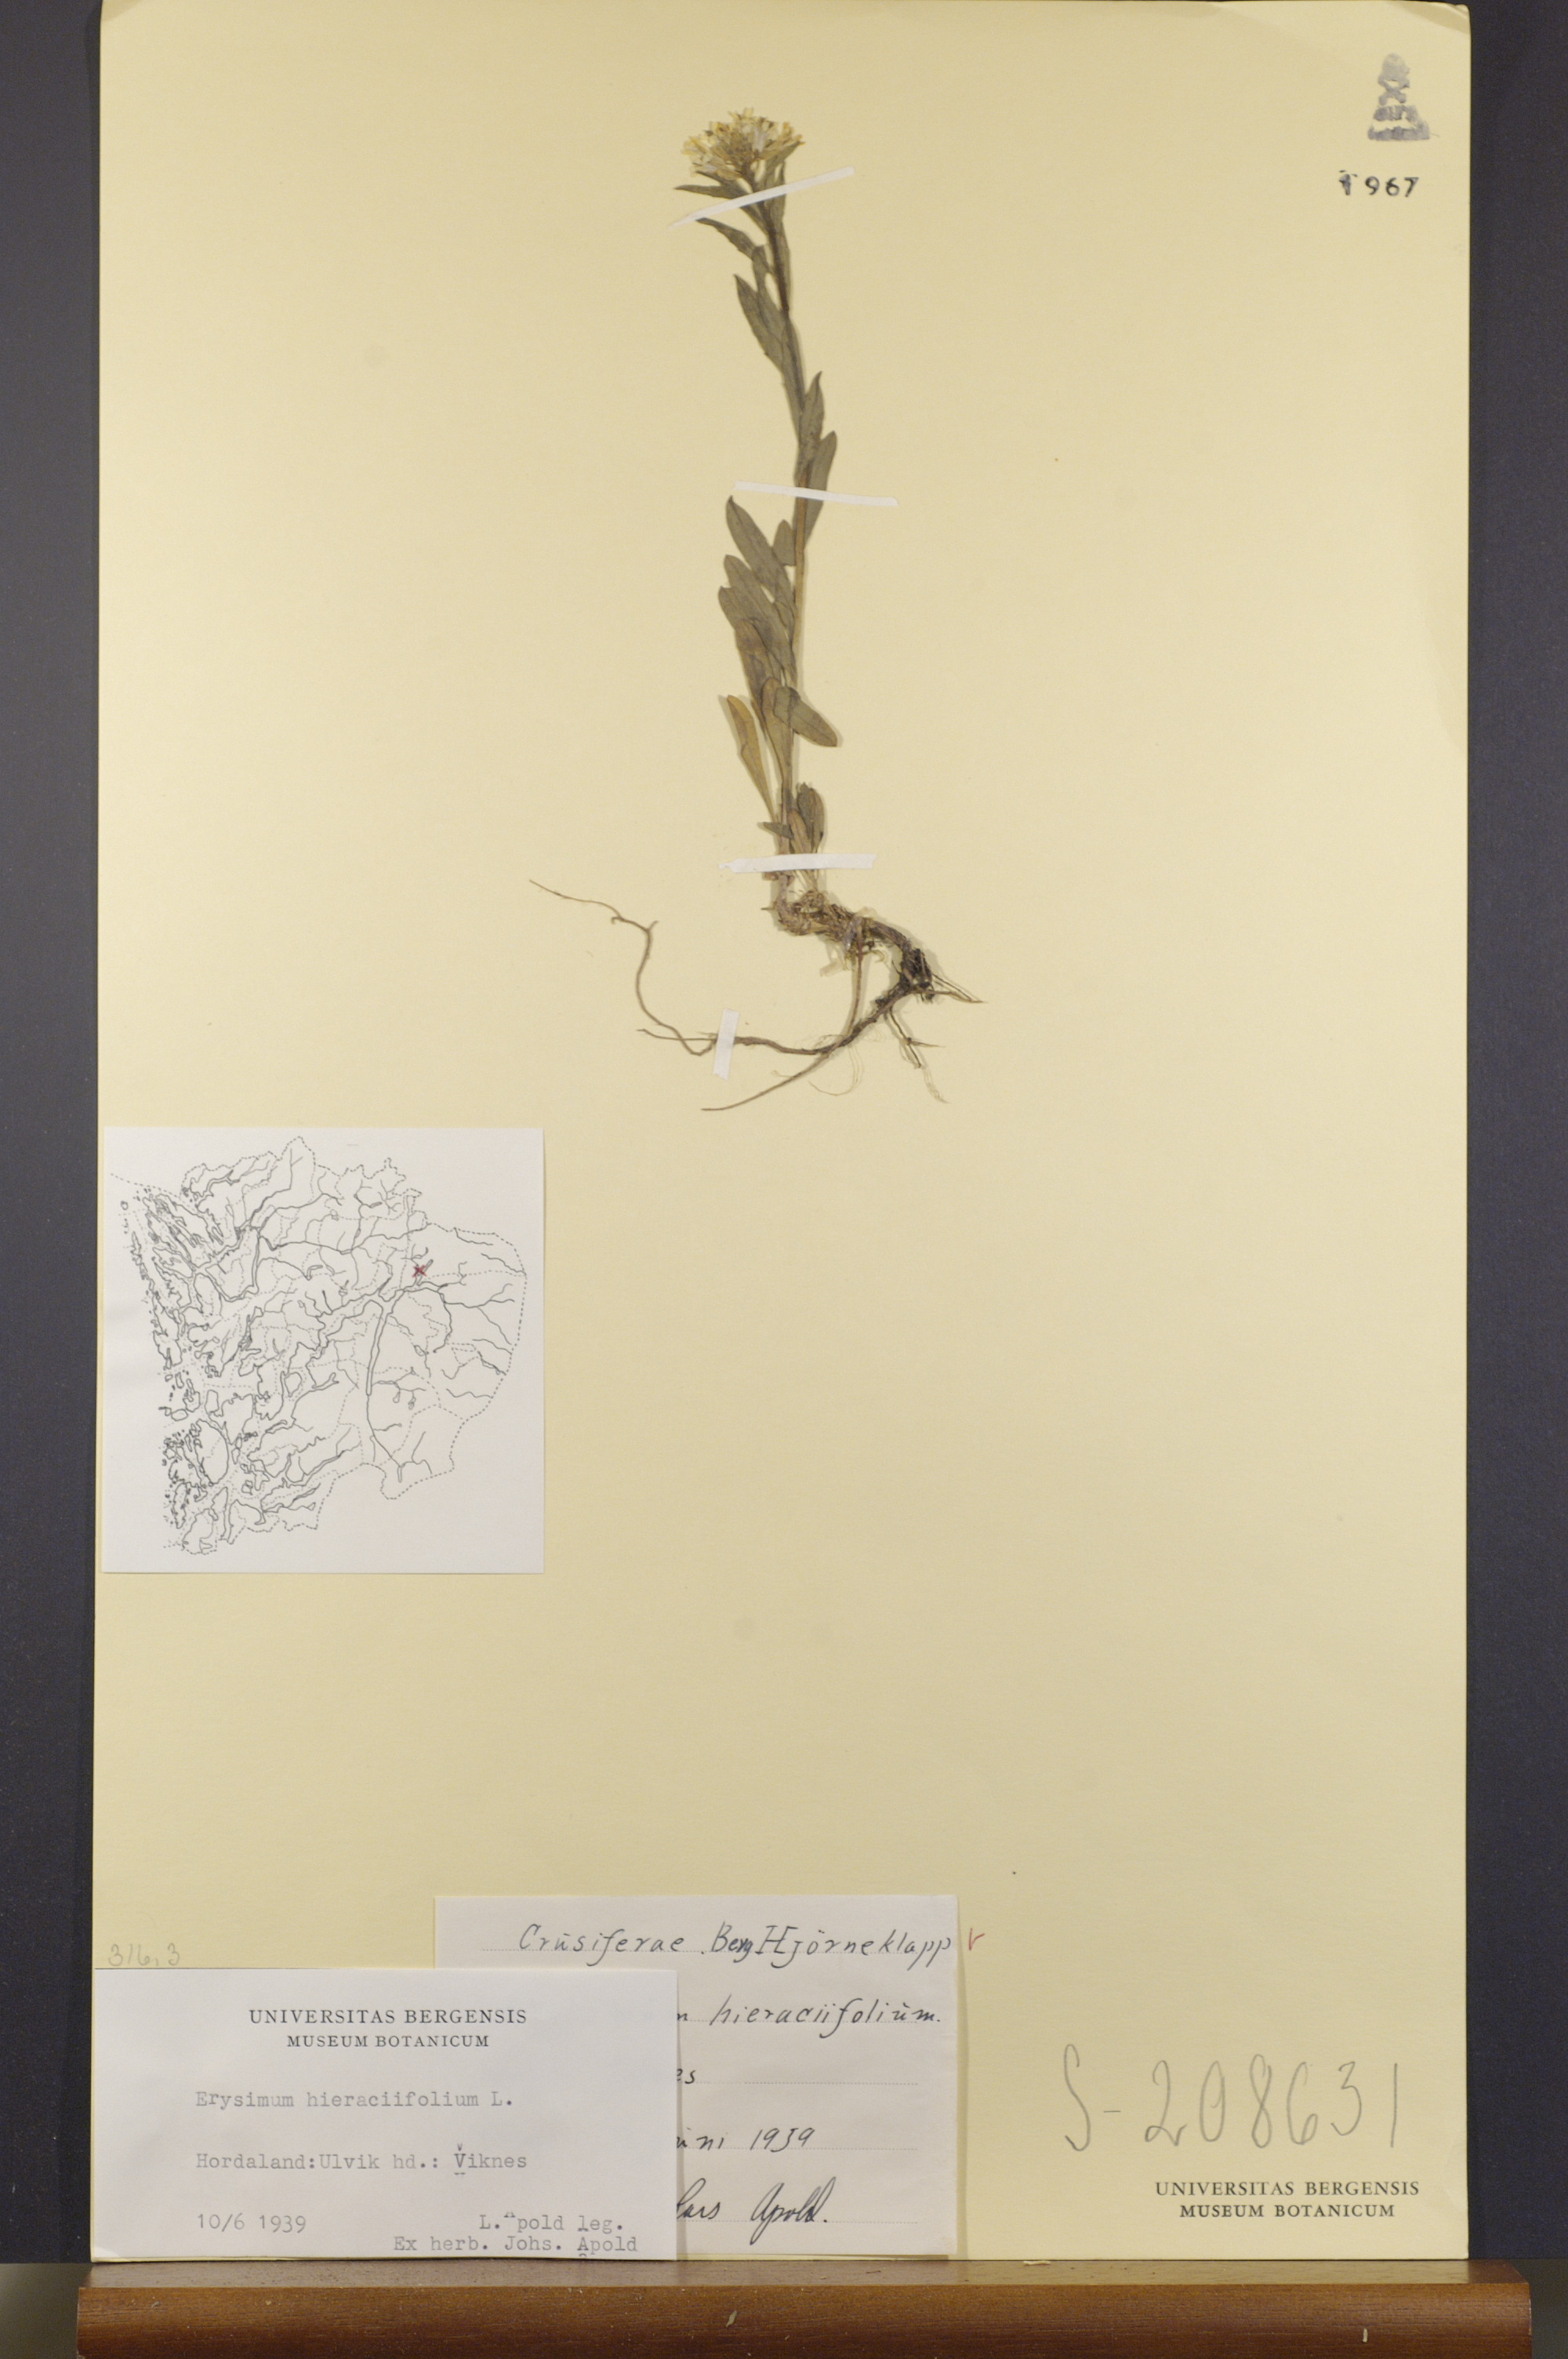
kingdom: Plantae
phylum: Tracheophyta
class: Magnoliopsida
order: Brassicales
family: Brassicaceae
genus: Erysimum
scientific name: Erysimum hieraciifolium
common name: European wallflower
